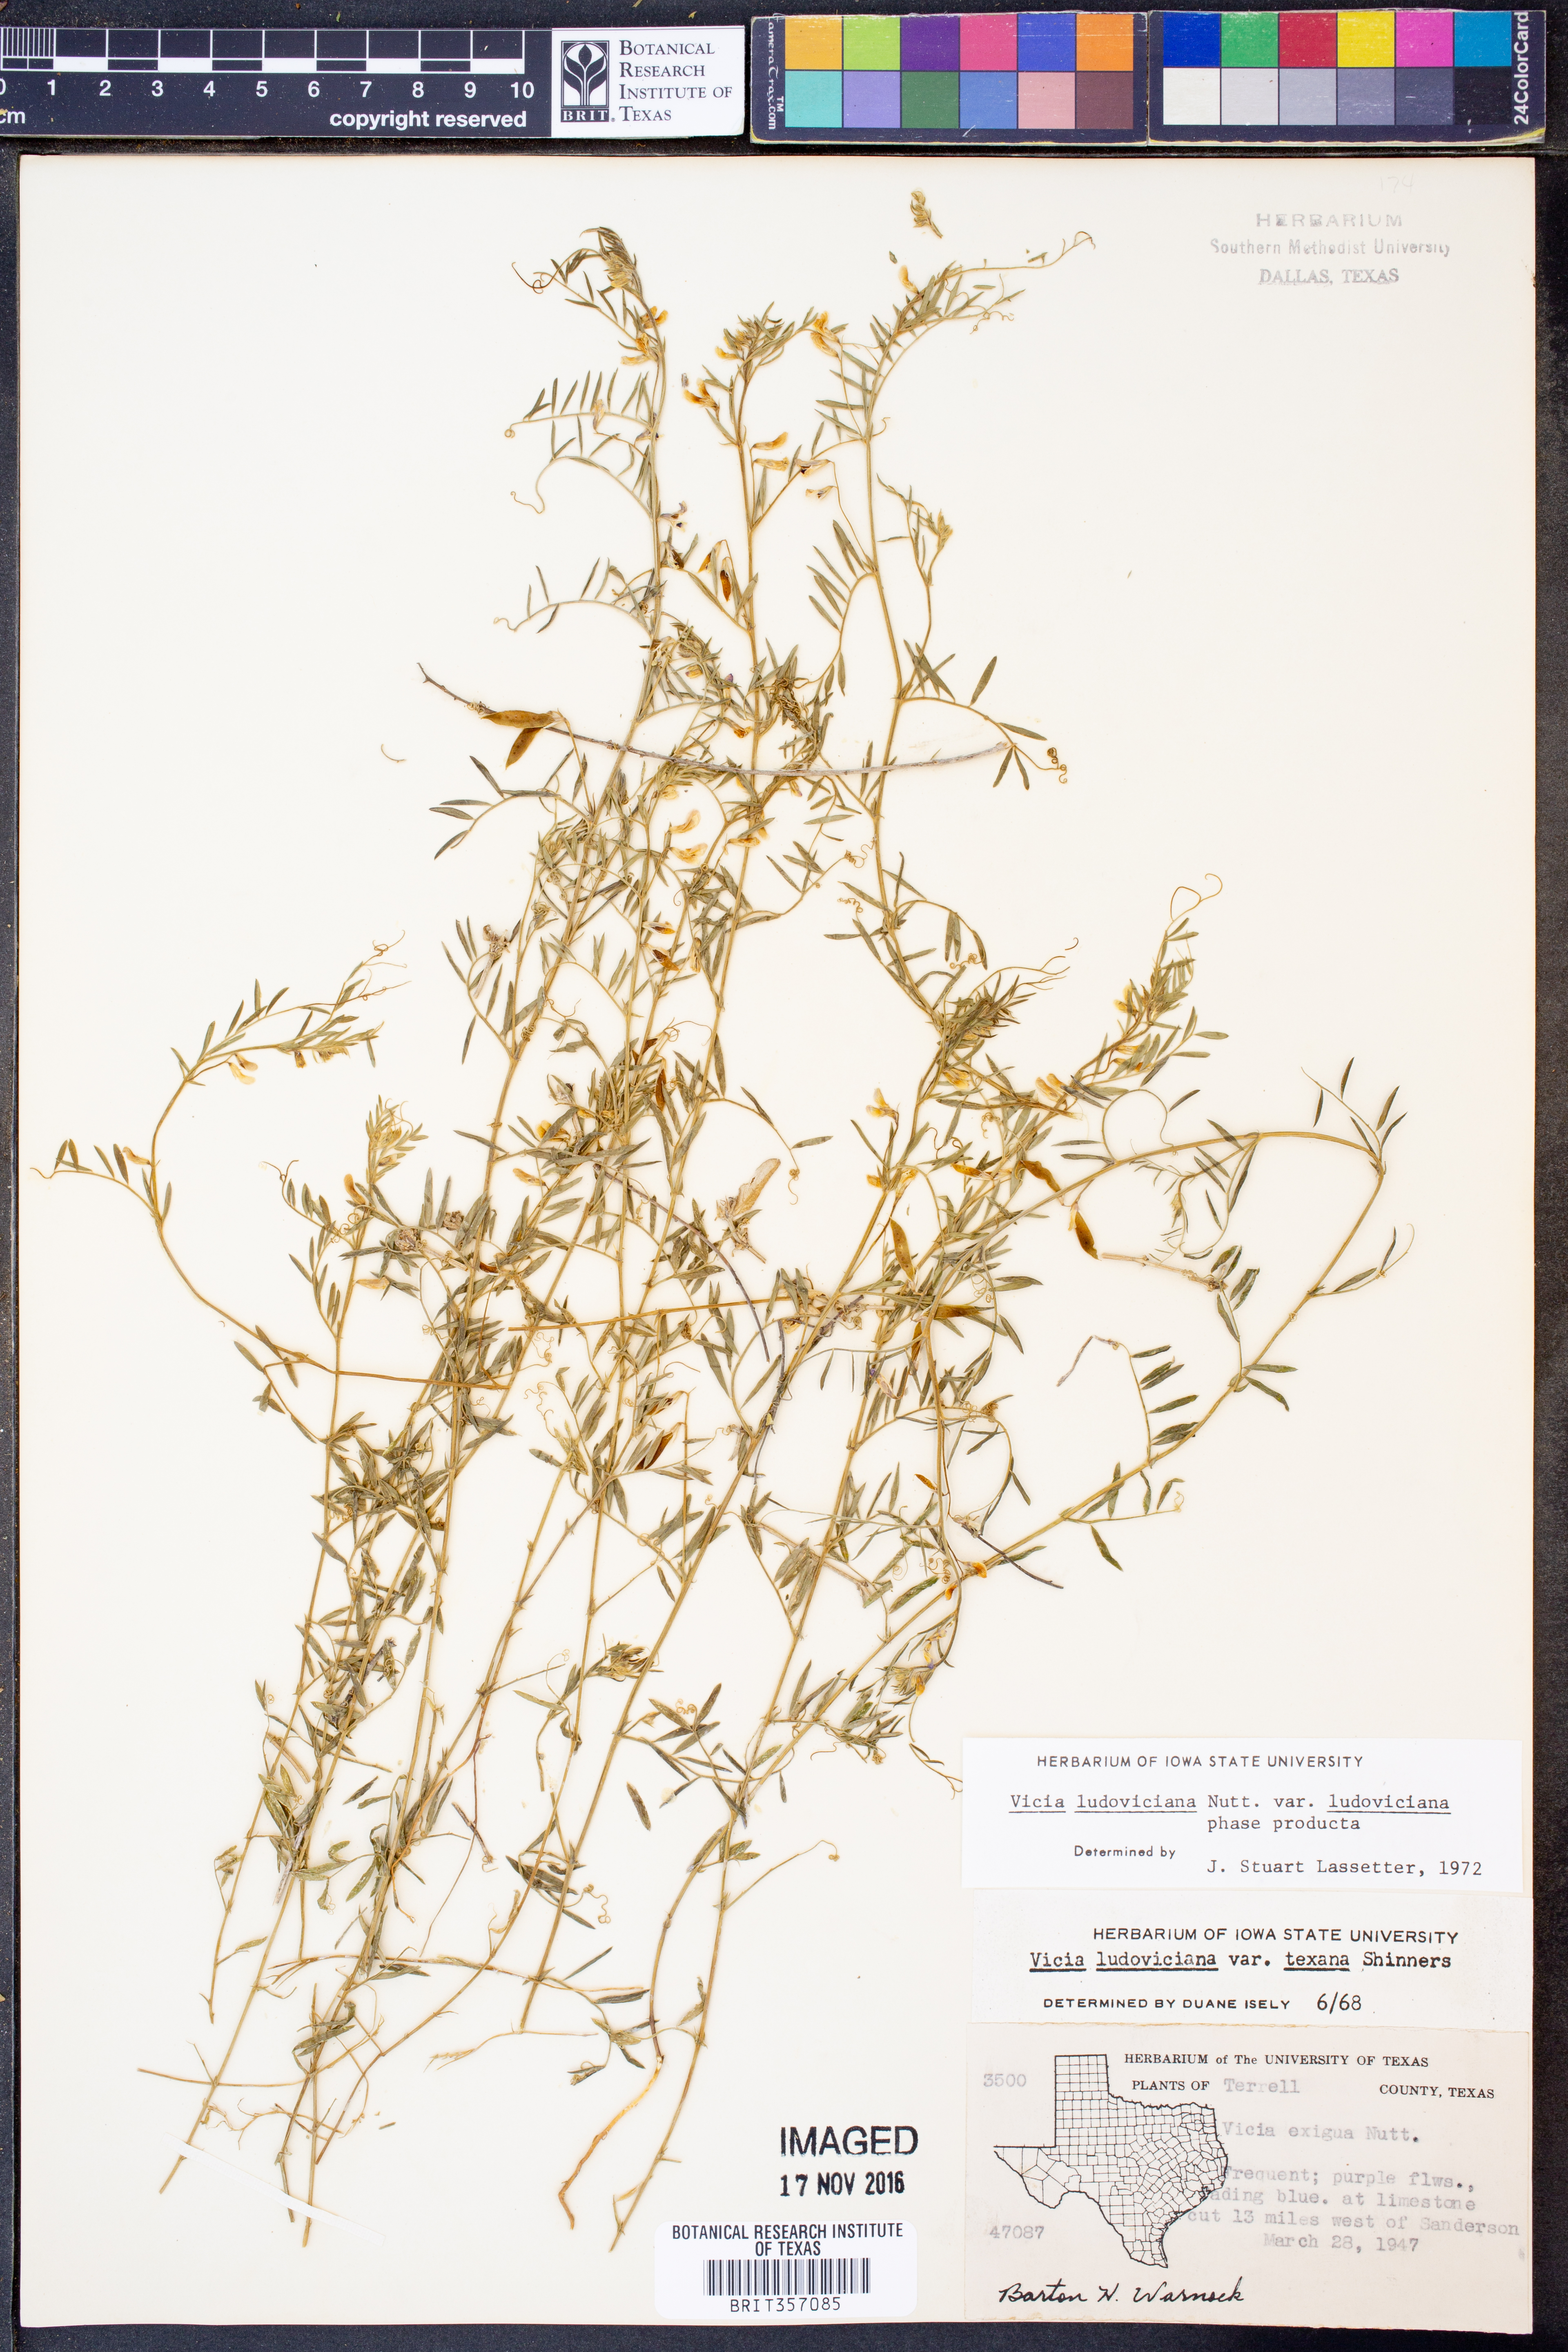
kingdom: Plantae
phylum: Tracheophyta
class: Magnoliopsida
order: Fabales
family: Fabaceae
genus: Vicia
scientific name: Vicia ludoviciana
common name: Louisiana vetch
